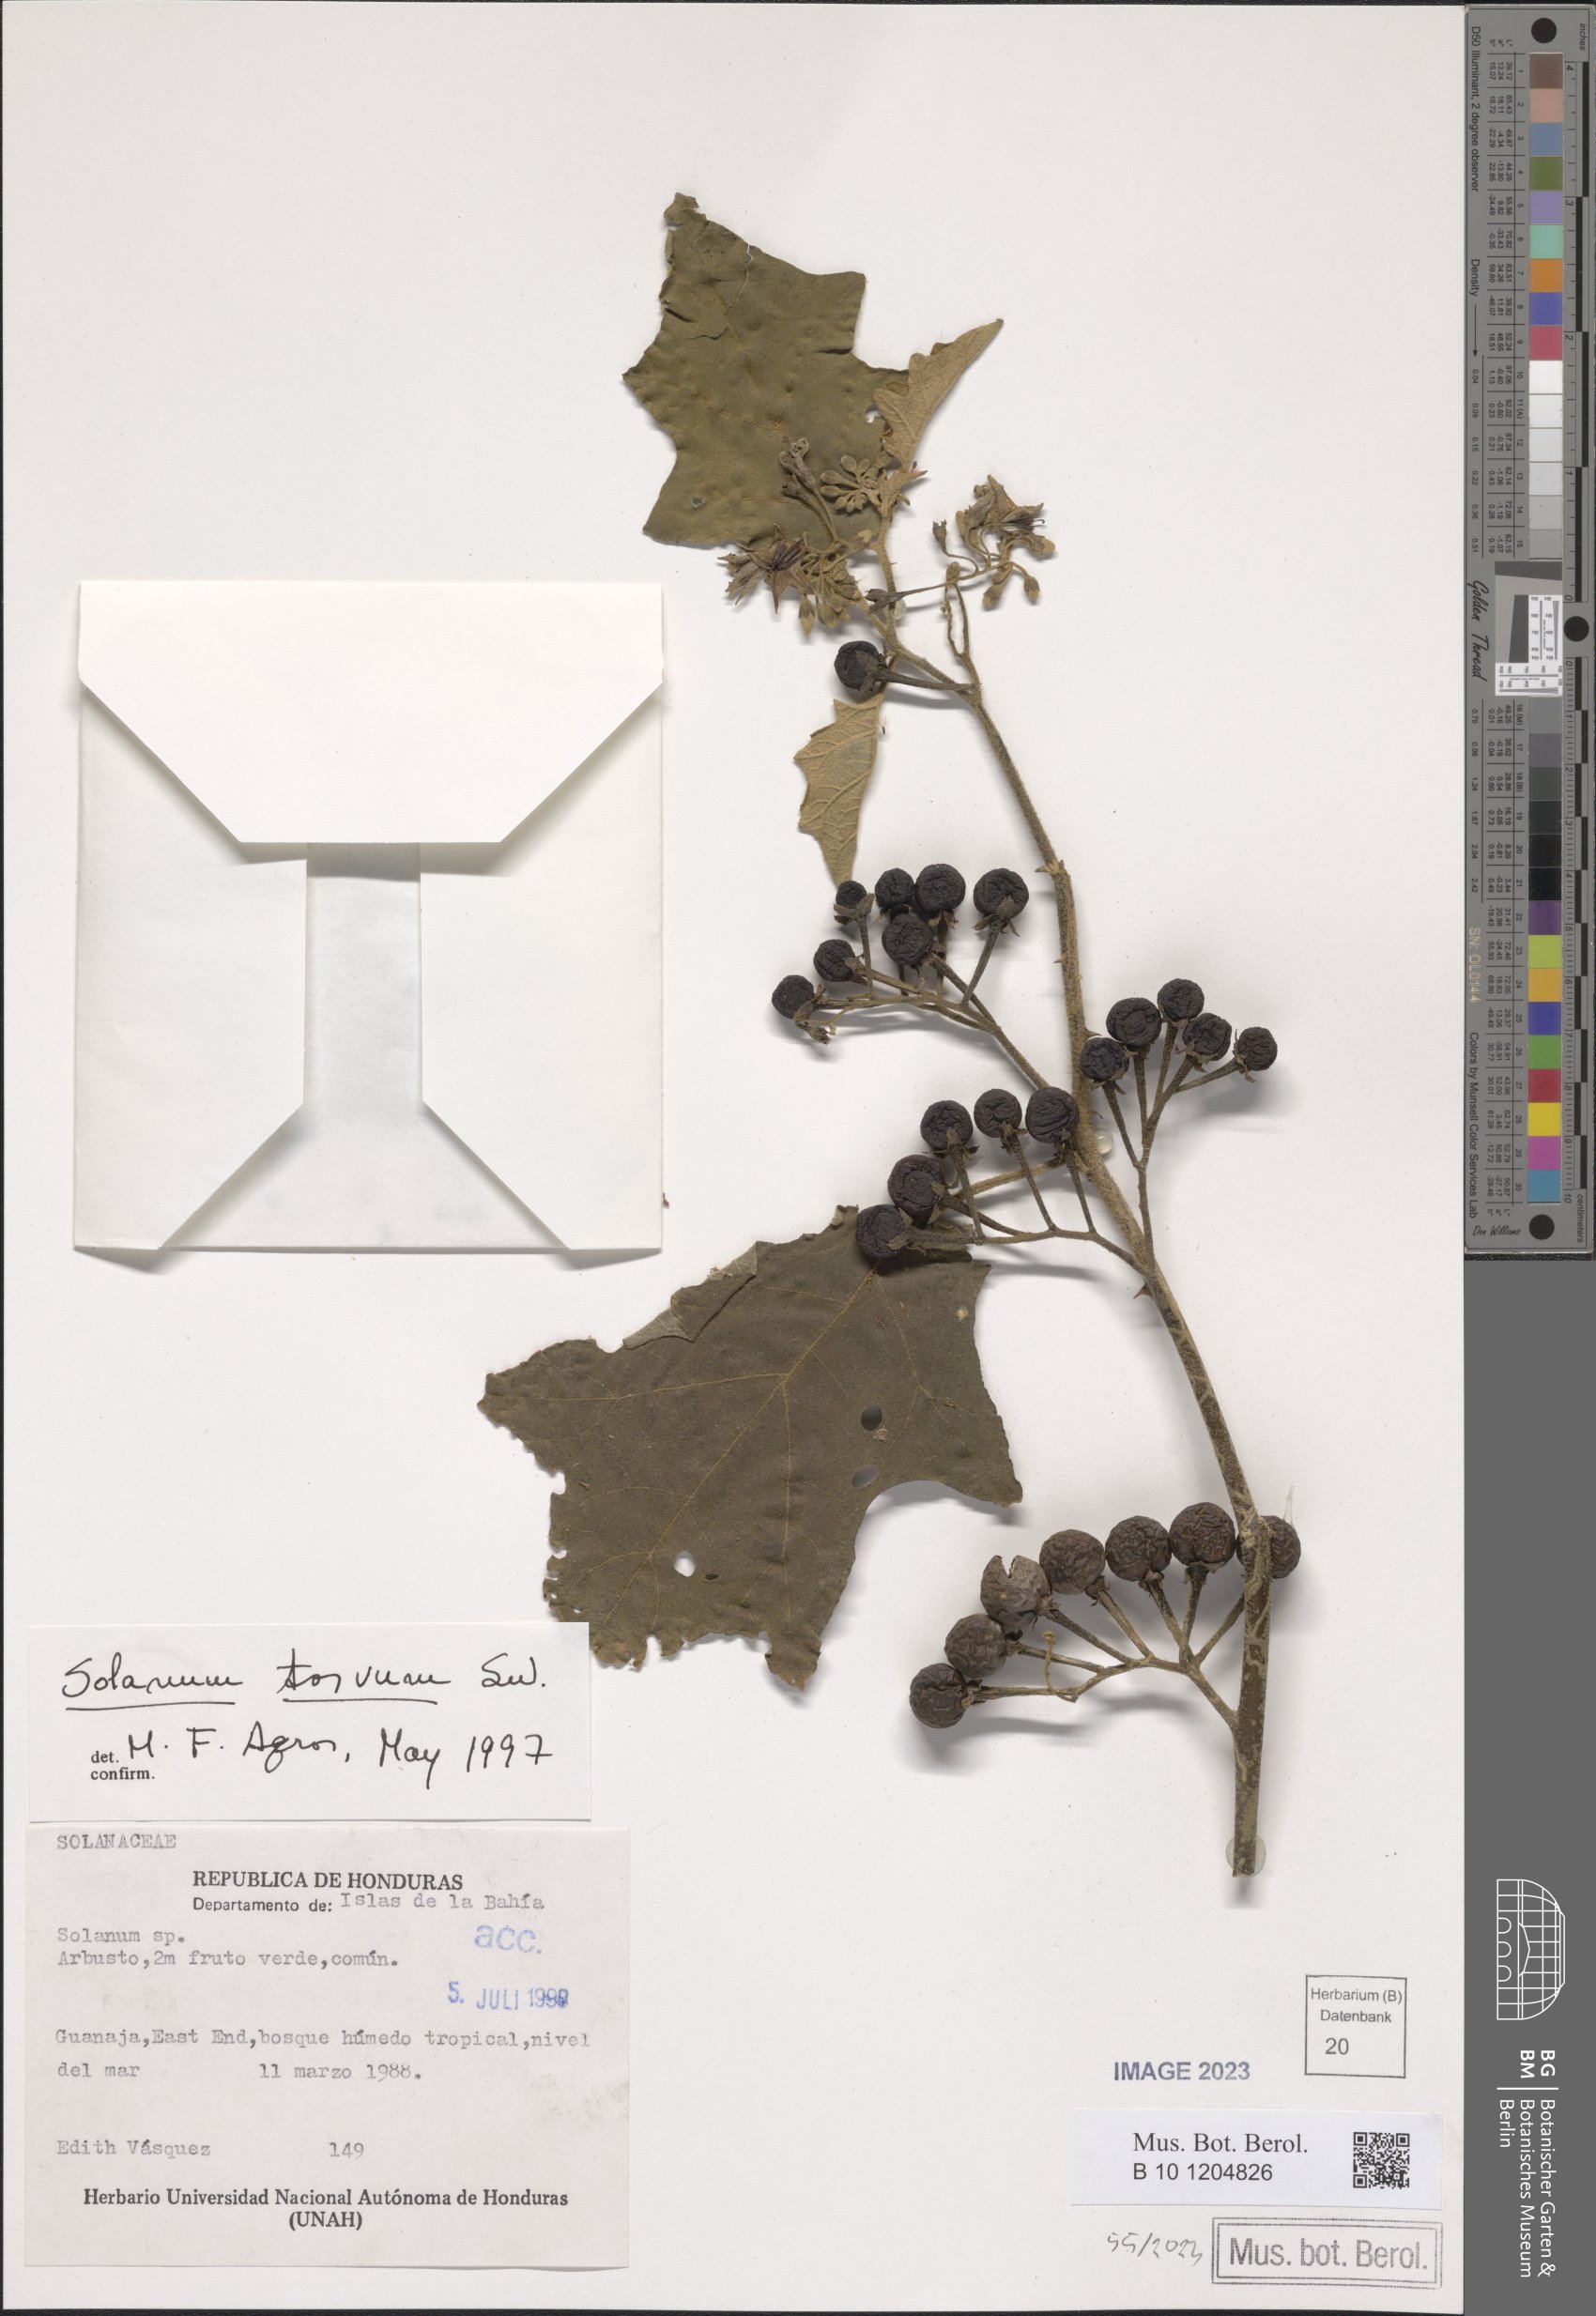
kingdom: Plantae
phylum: Tracheophyta
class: Magnoliopsida
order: Solanales
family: Solanaceae
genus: Solanum
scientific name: Solanum torvum
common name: Turkey berry
